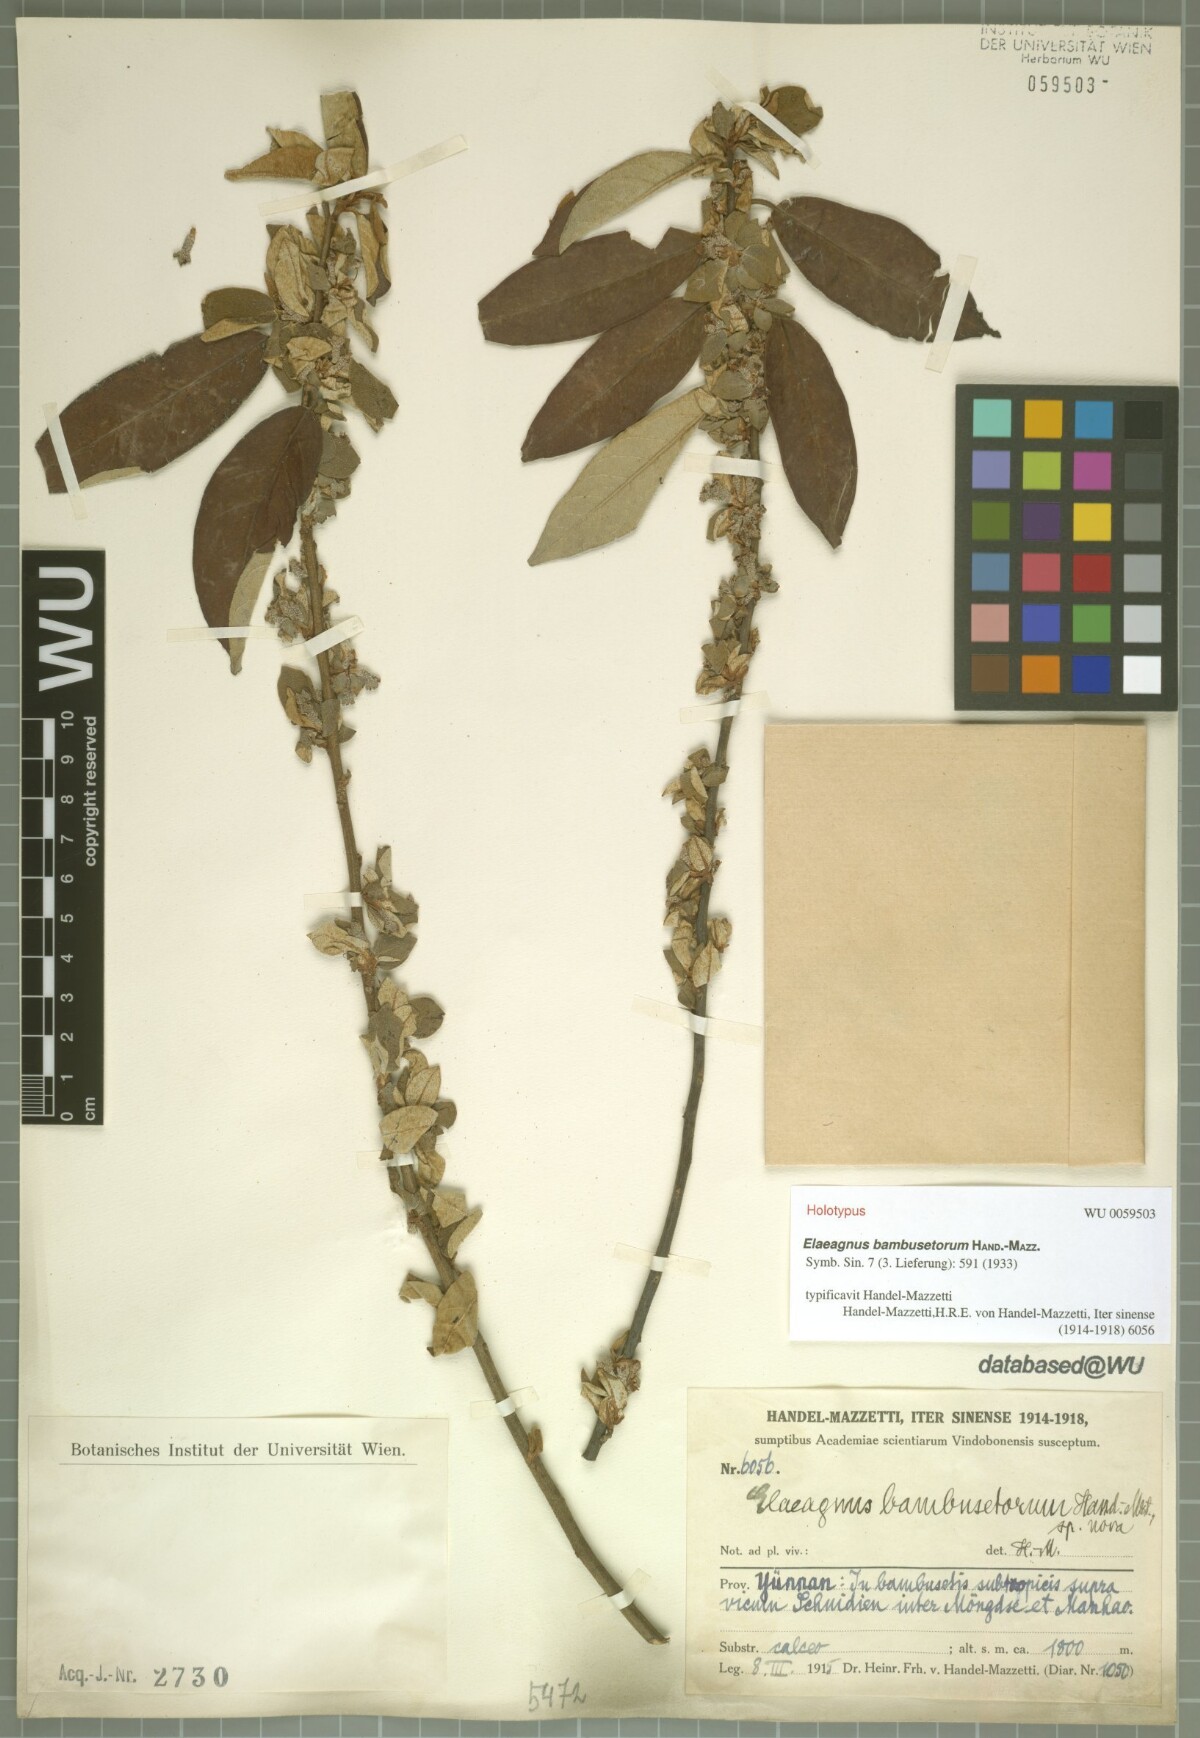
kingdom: Plantae
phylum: Tracheophyta
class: Magnoliopsida
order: Rosales
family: Elaeagnaceae
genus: Elaeagnus
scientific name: Elaeagnus bambusetorum
